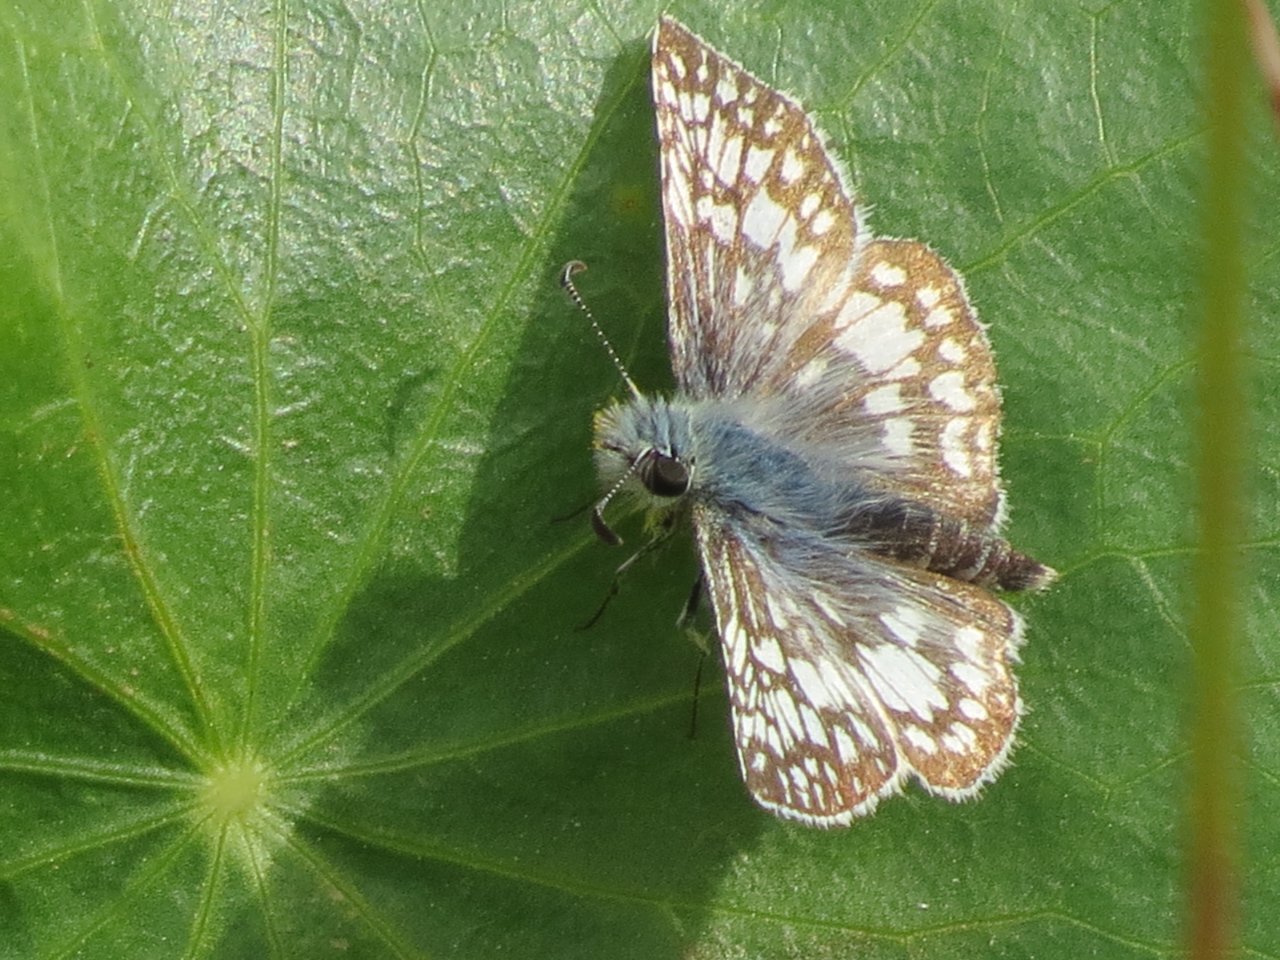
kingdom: Animalia
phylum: Arthropoda
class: Insecta
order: Lepidoptera
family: Hesperiidae
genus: Pyrgus
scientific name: Pyrgus communis
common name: Common Checkered-Skipper
